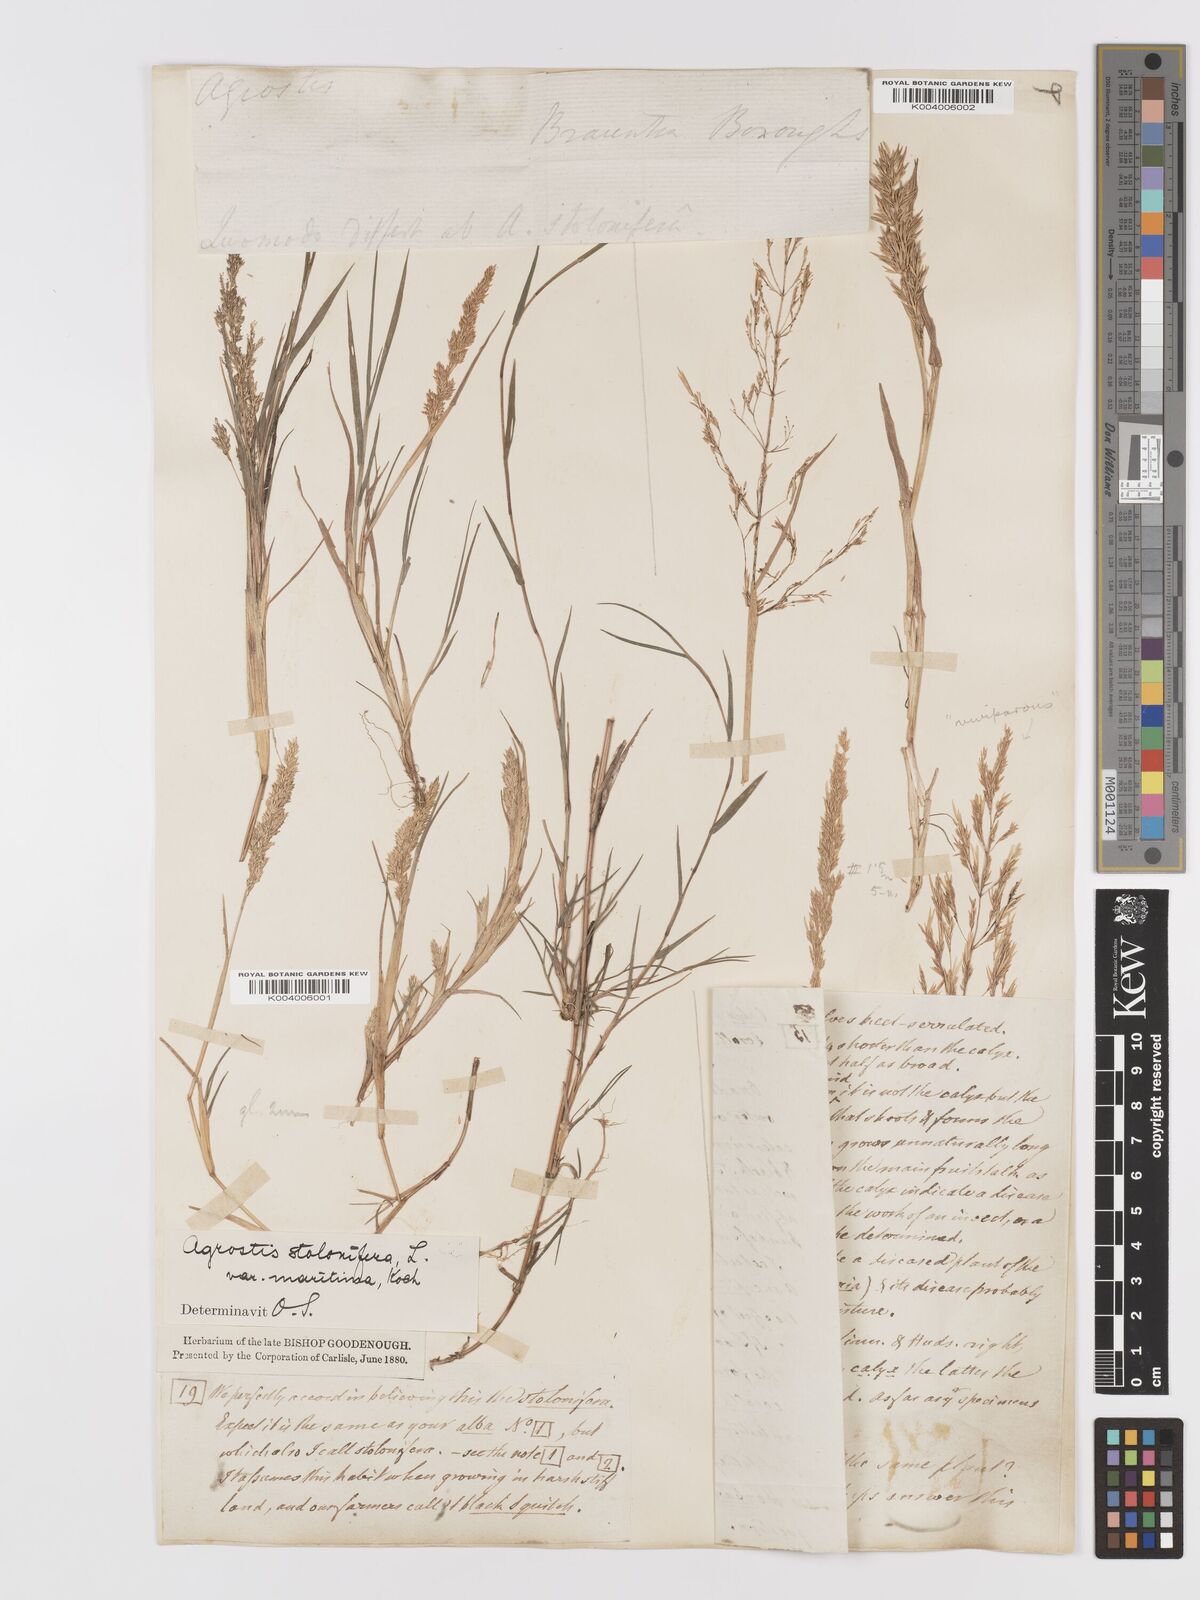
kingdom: Plantae
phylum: Tracheophyta
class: Liliopsida
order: Poales
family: Poaceae
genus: Agrostis
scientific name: Agrostis stolonifera
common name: Creeping bentgrass
